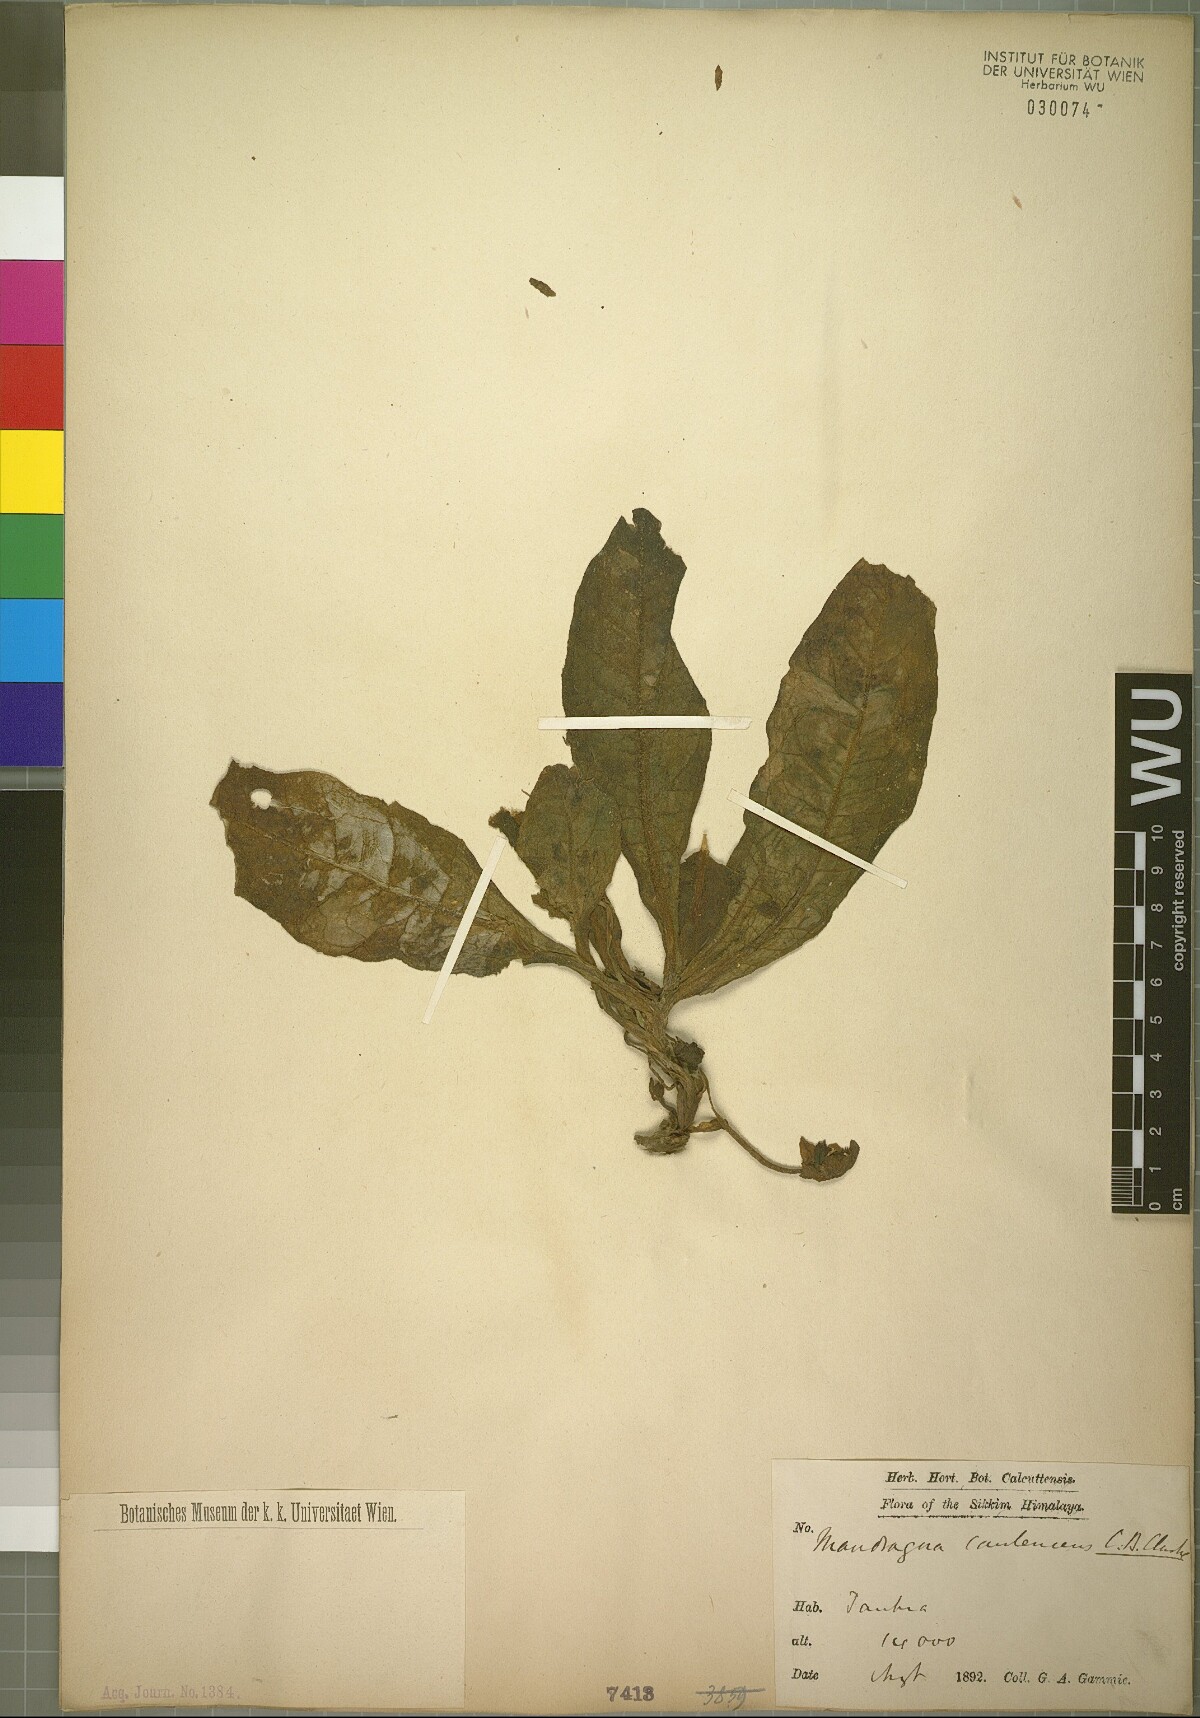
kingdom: Plantae
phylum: Tracheophyta
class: Magnoliopsida
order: Solanales
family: Solanaceae
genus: Mandragora
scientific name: Mandragora caulescens
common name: Himalayan mandrake
